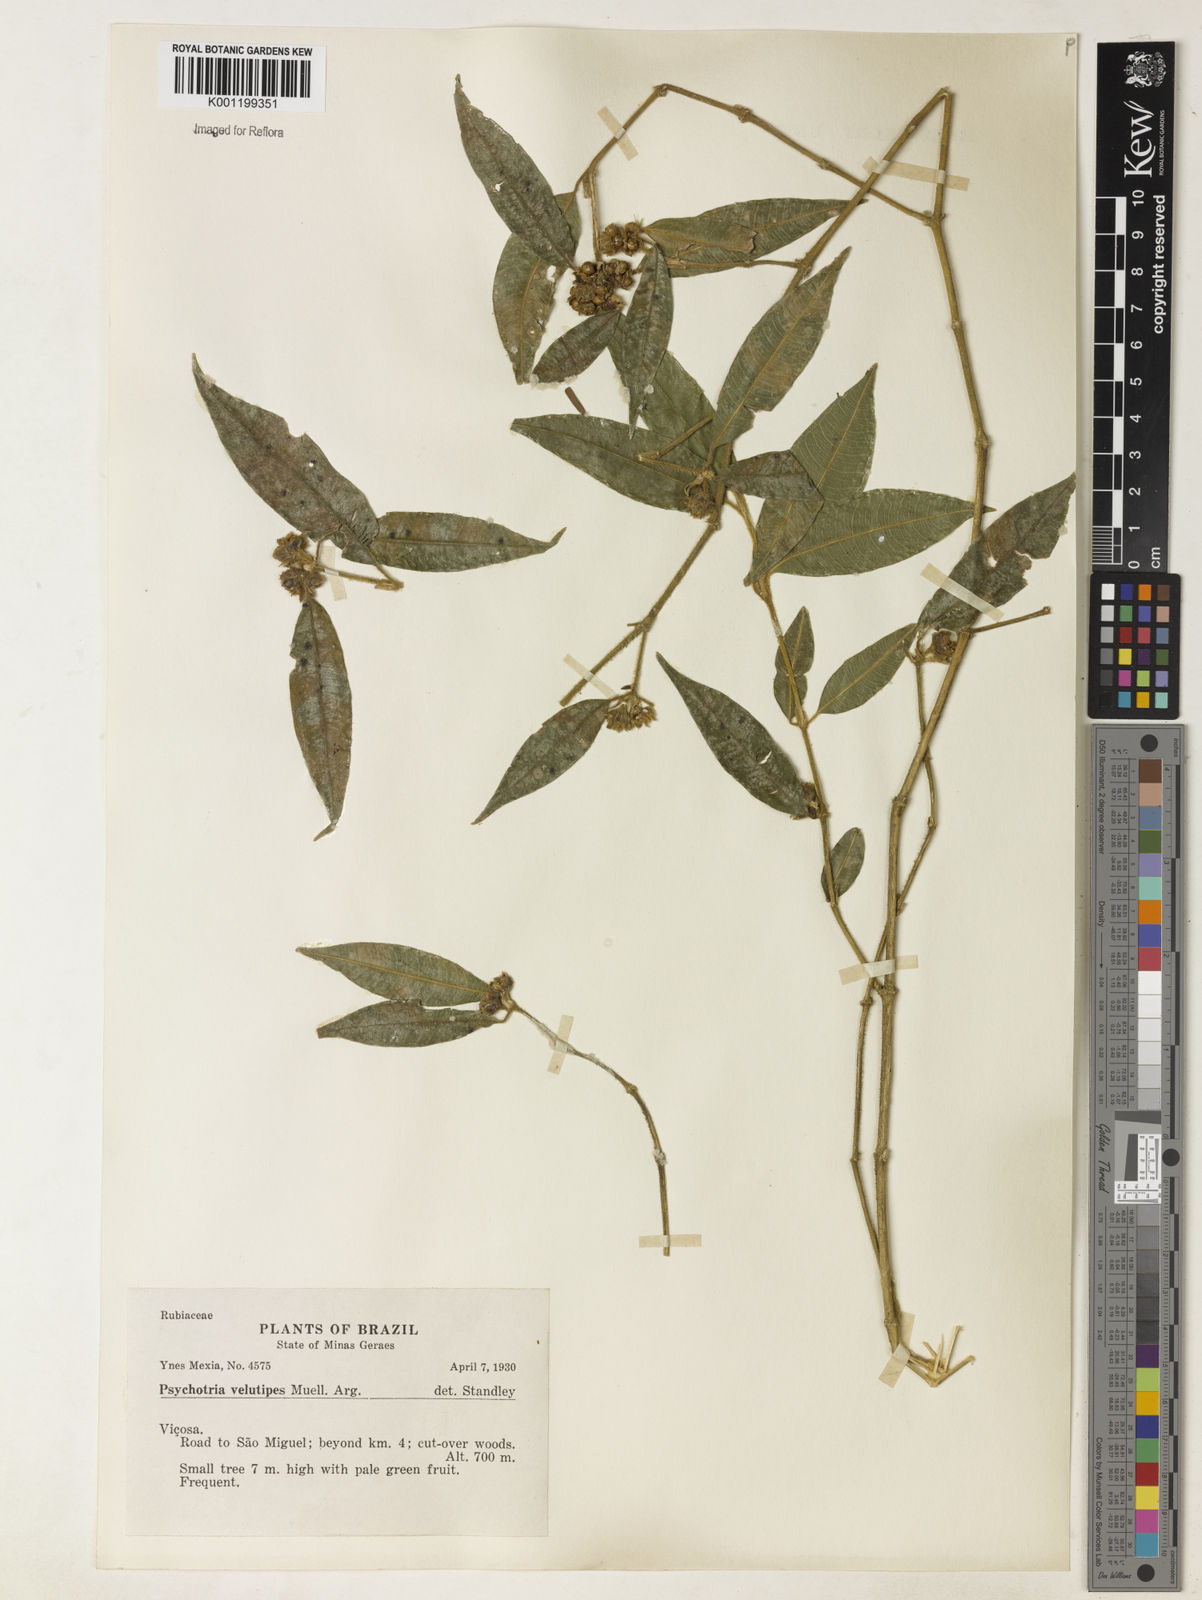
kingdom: Plantae
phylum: Tracheophyta
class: Magnoliopsida
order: Gentianales
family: Rubiaceae
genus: Rudgea
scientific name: Rudgea sessilis
